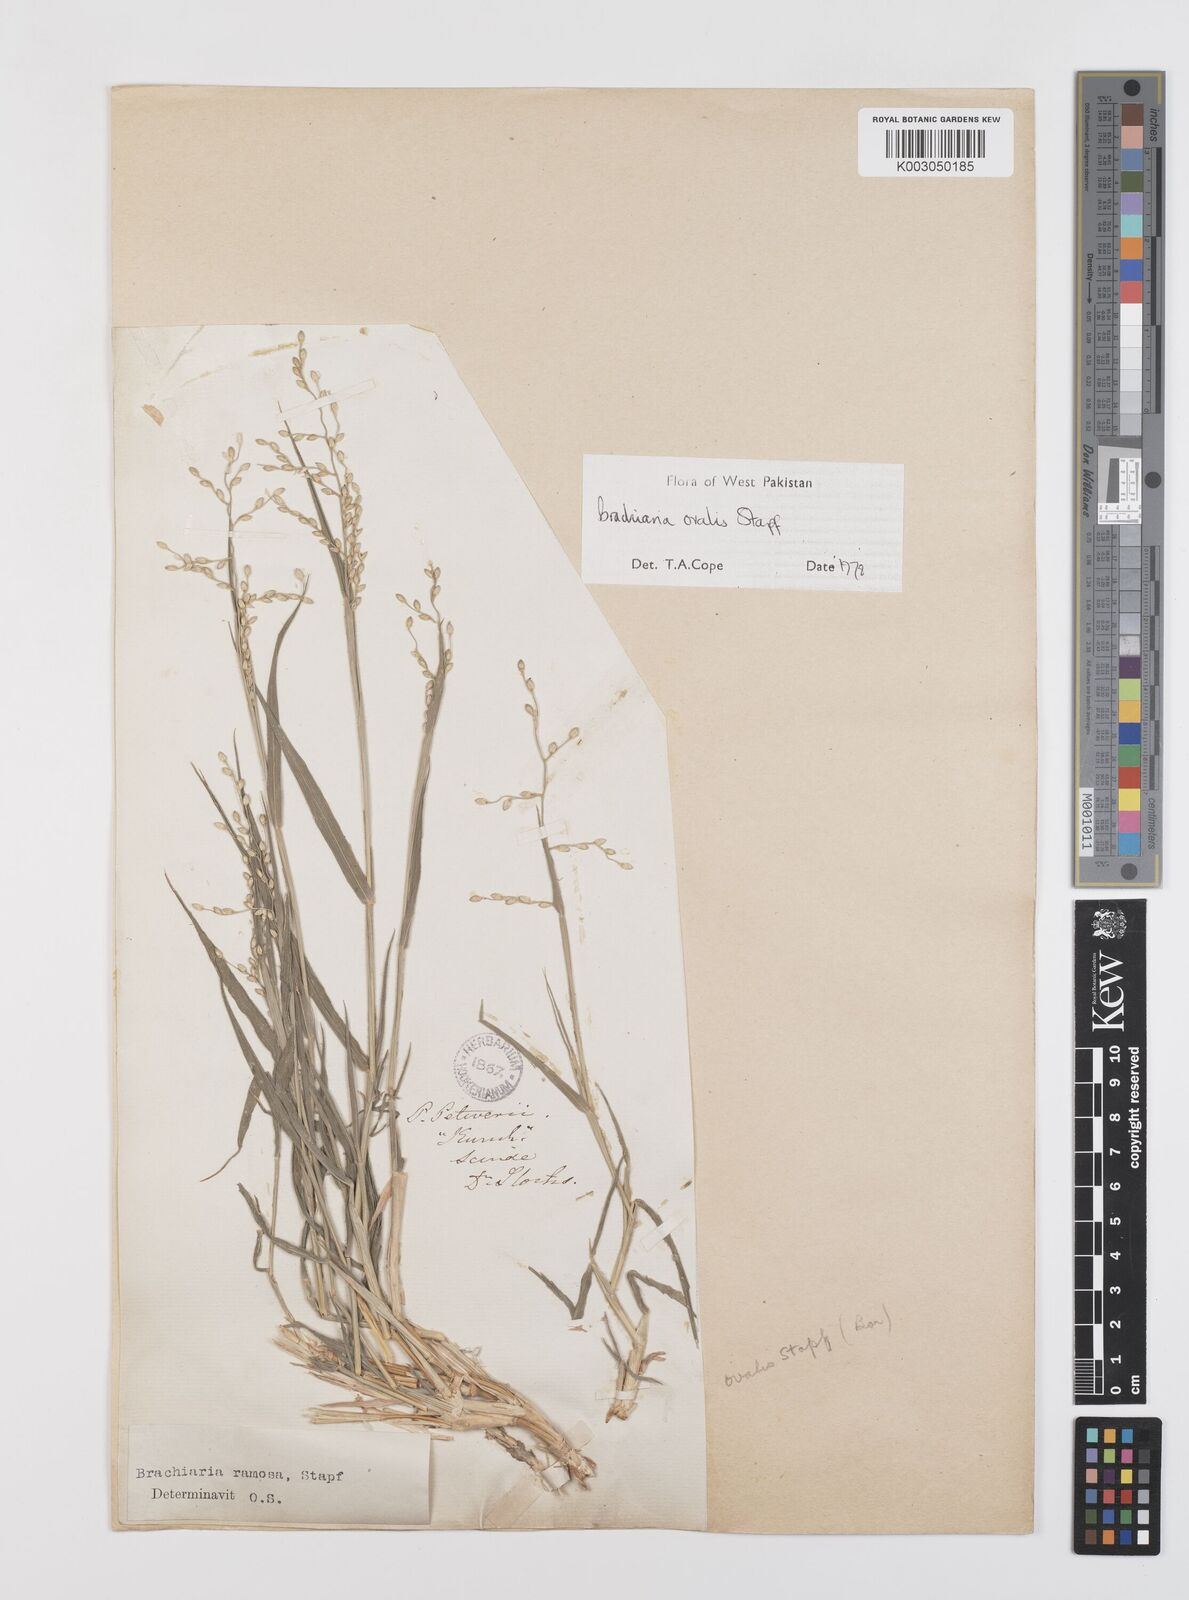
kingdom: Plantae
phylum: Tracheophyta
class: Liliopsida
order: Poales
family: Poaceae
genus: Urochloa
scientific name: Urochloa ovalis
